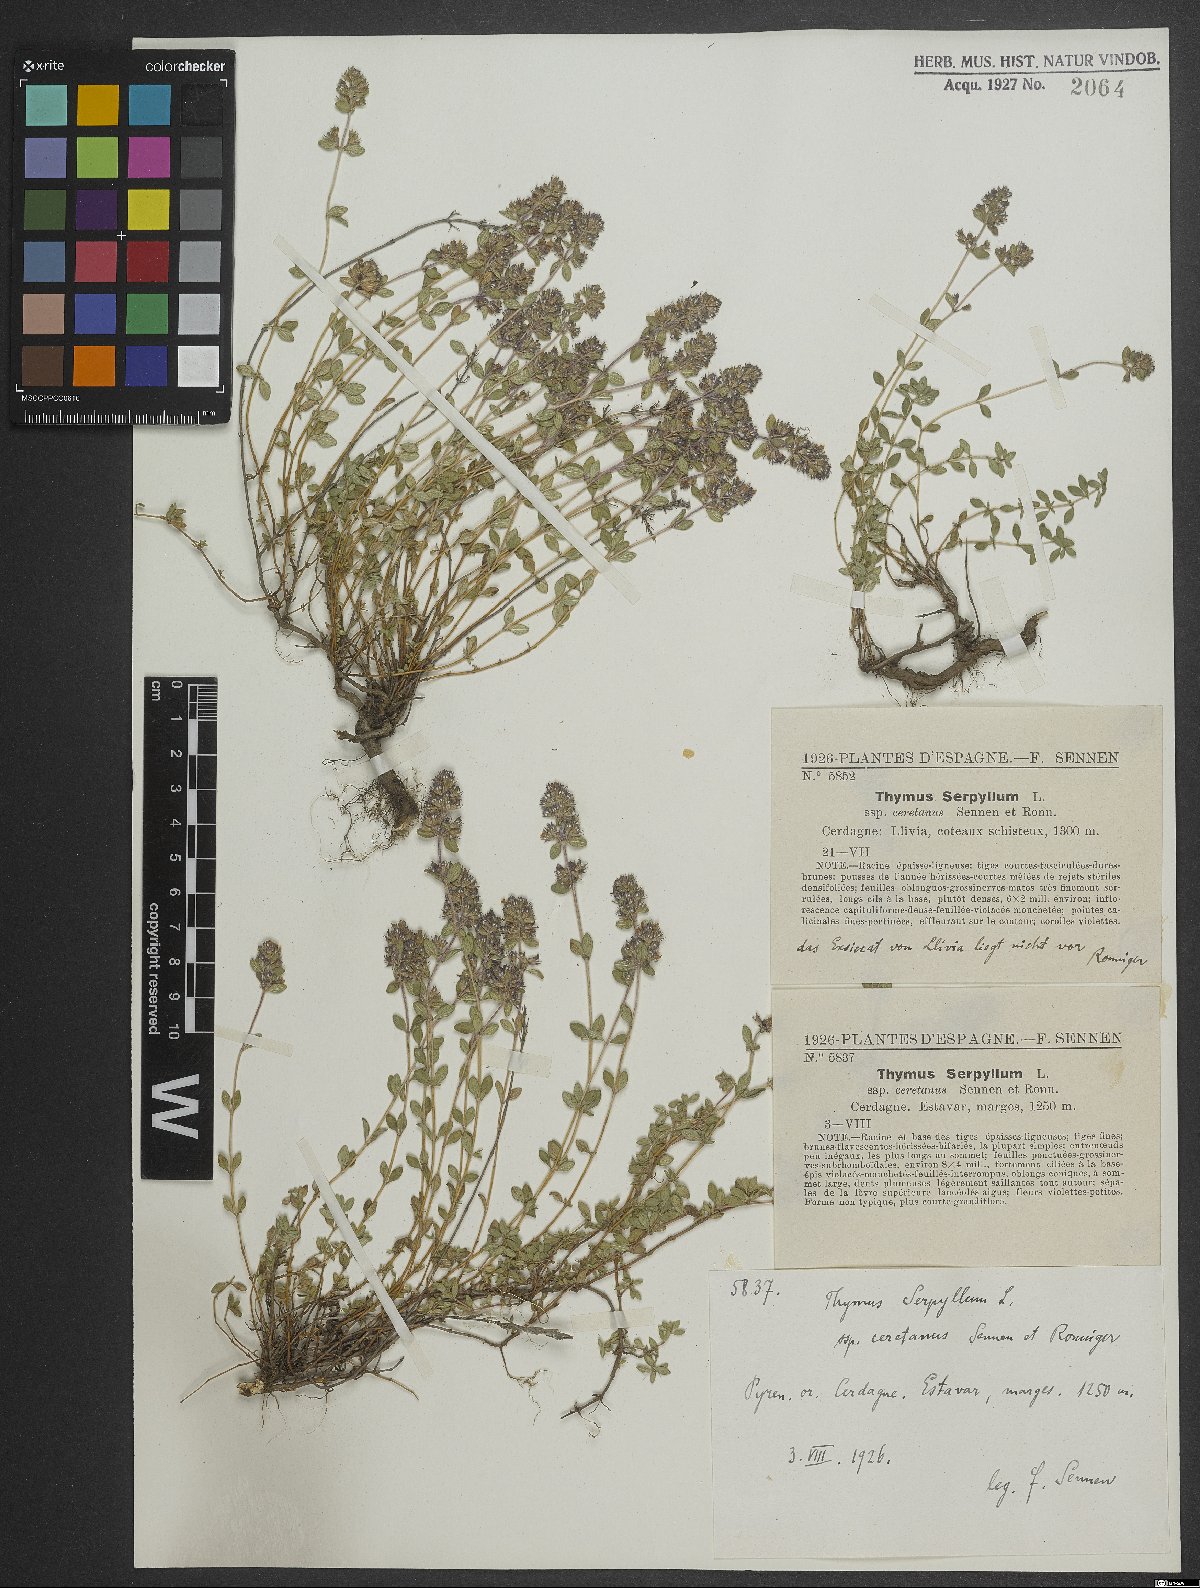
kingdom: Plantae
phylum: Tracheophyta
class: Magnoliopsida
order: Lamiales
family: Lamiaceae
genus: Thymus
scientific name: Thymus serpyllum
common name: Breckland thyme
